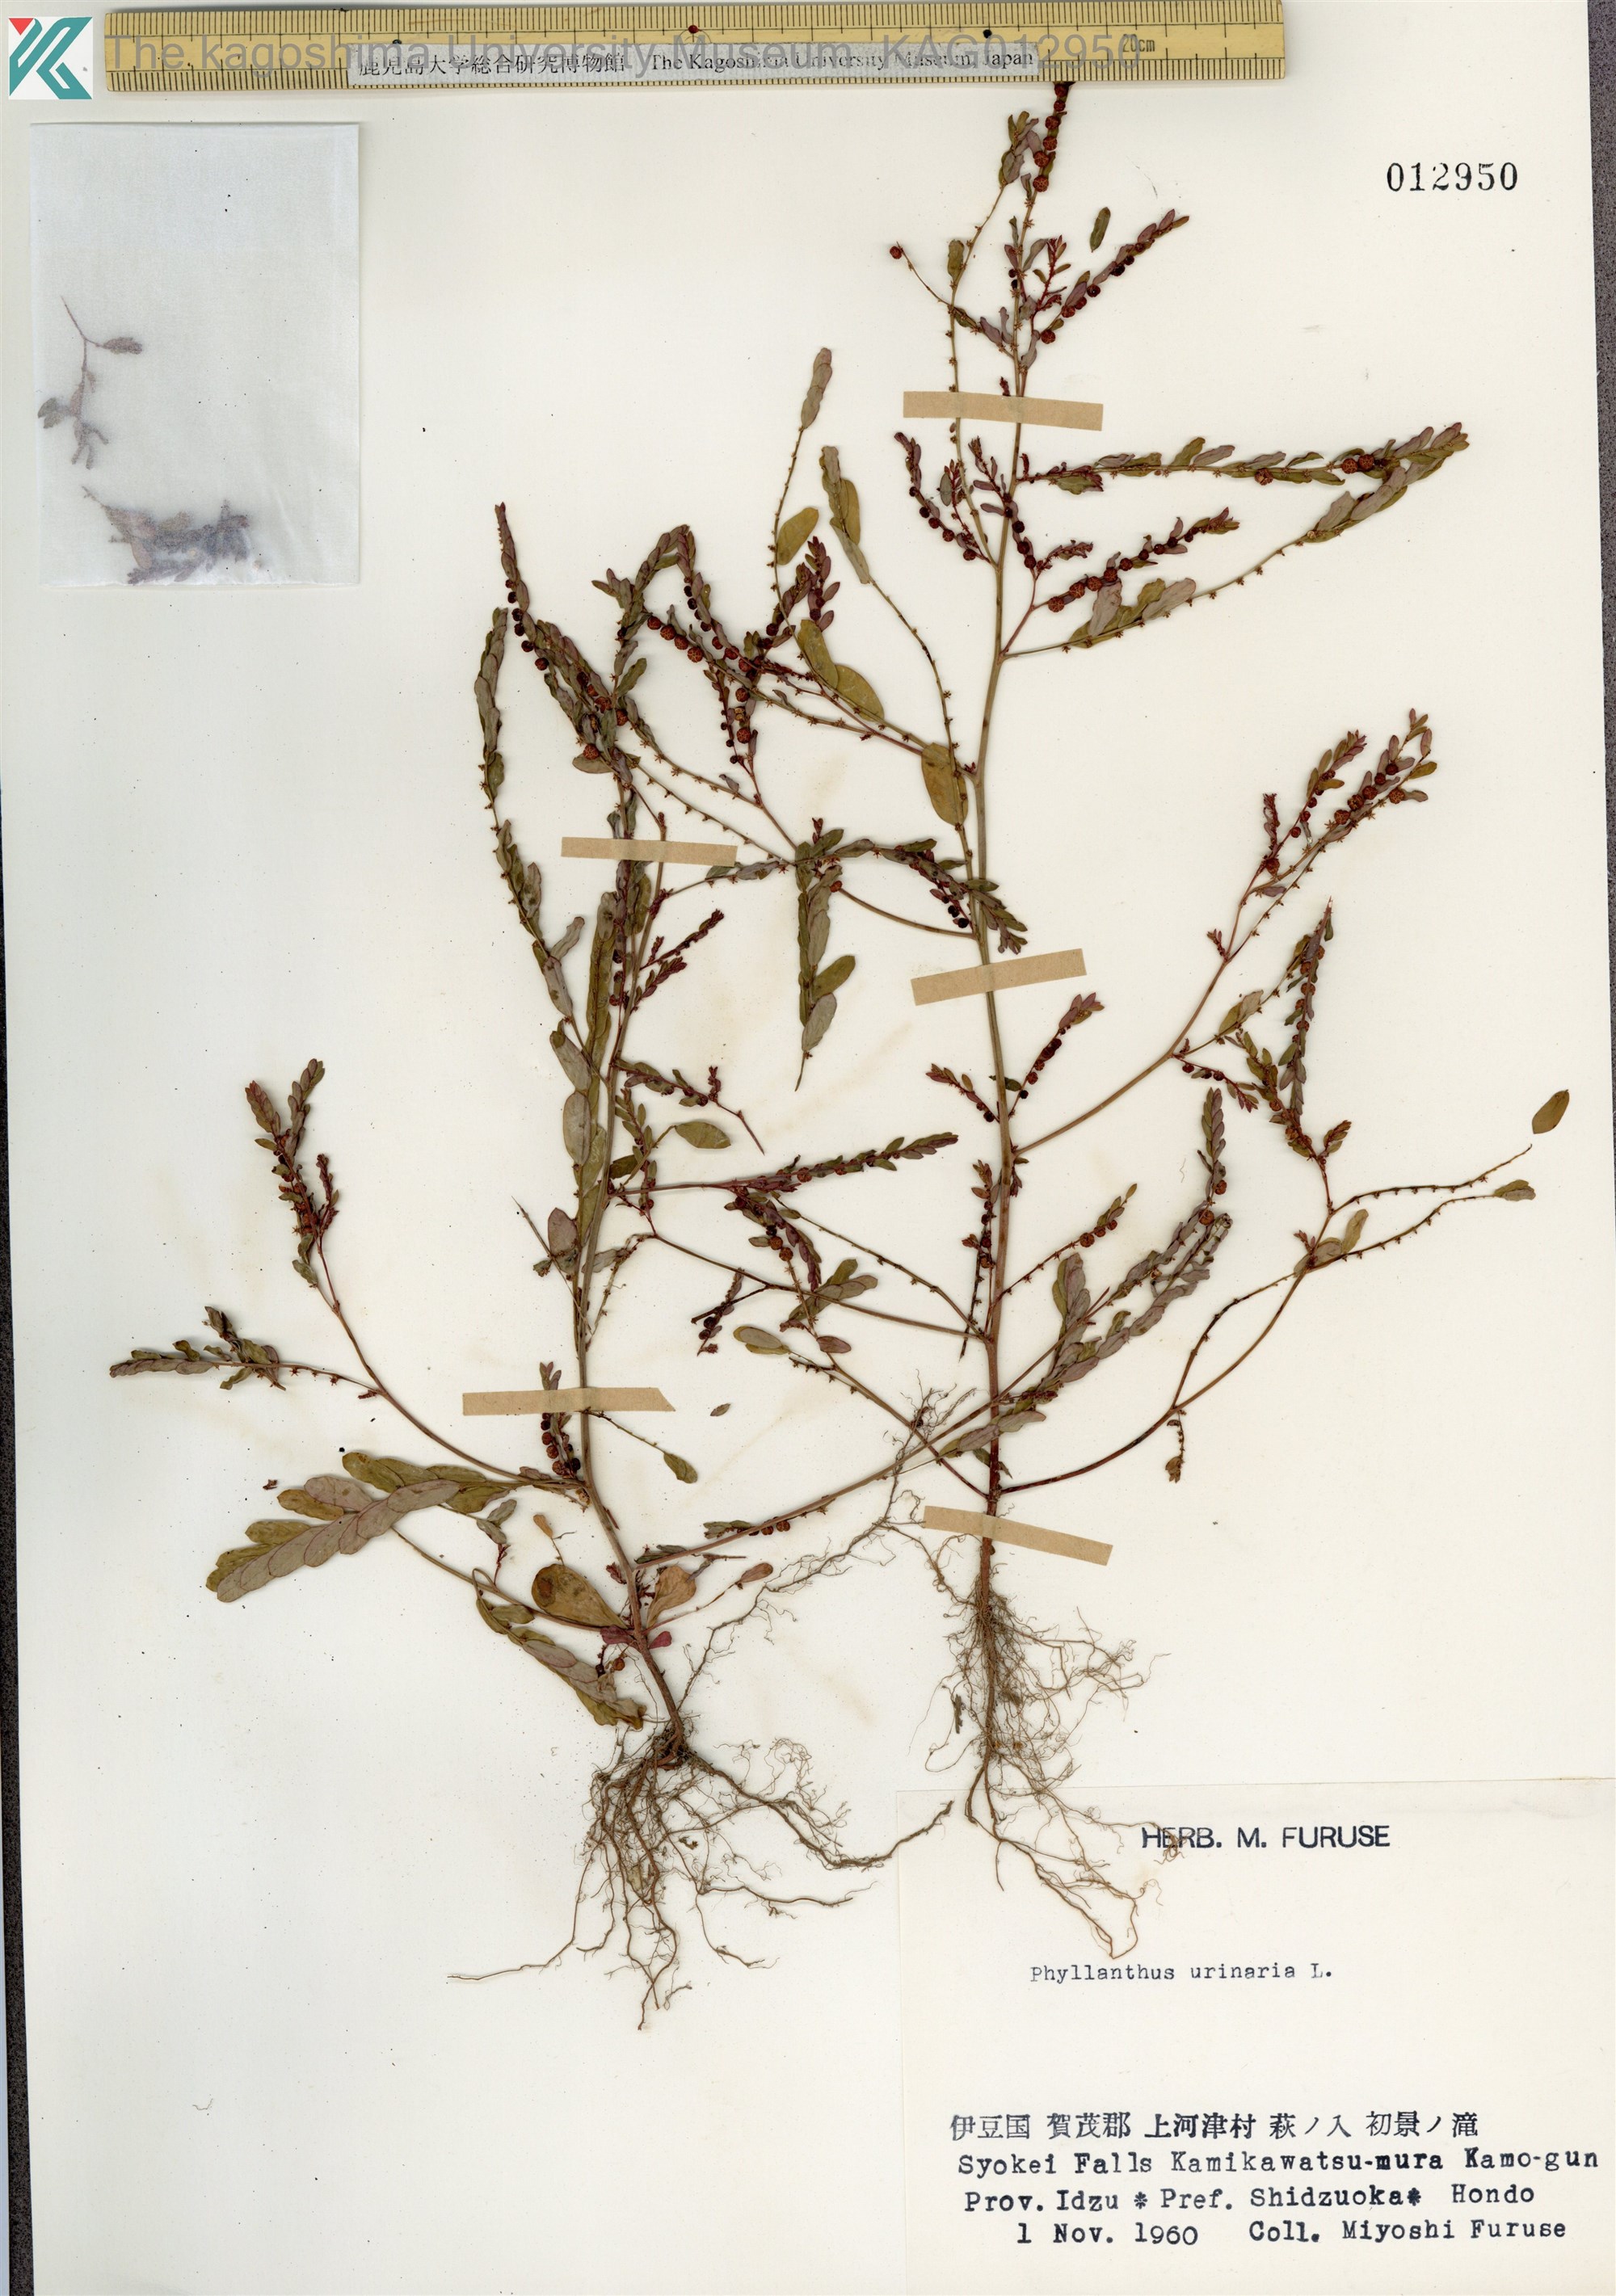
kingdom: Plantae
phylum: Tracheophyta
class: Magnoliopsida
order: Malpighiales
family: Phyllanthaceae
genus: Phyllanthus
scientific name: Phyllanthus urinaria
